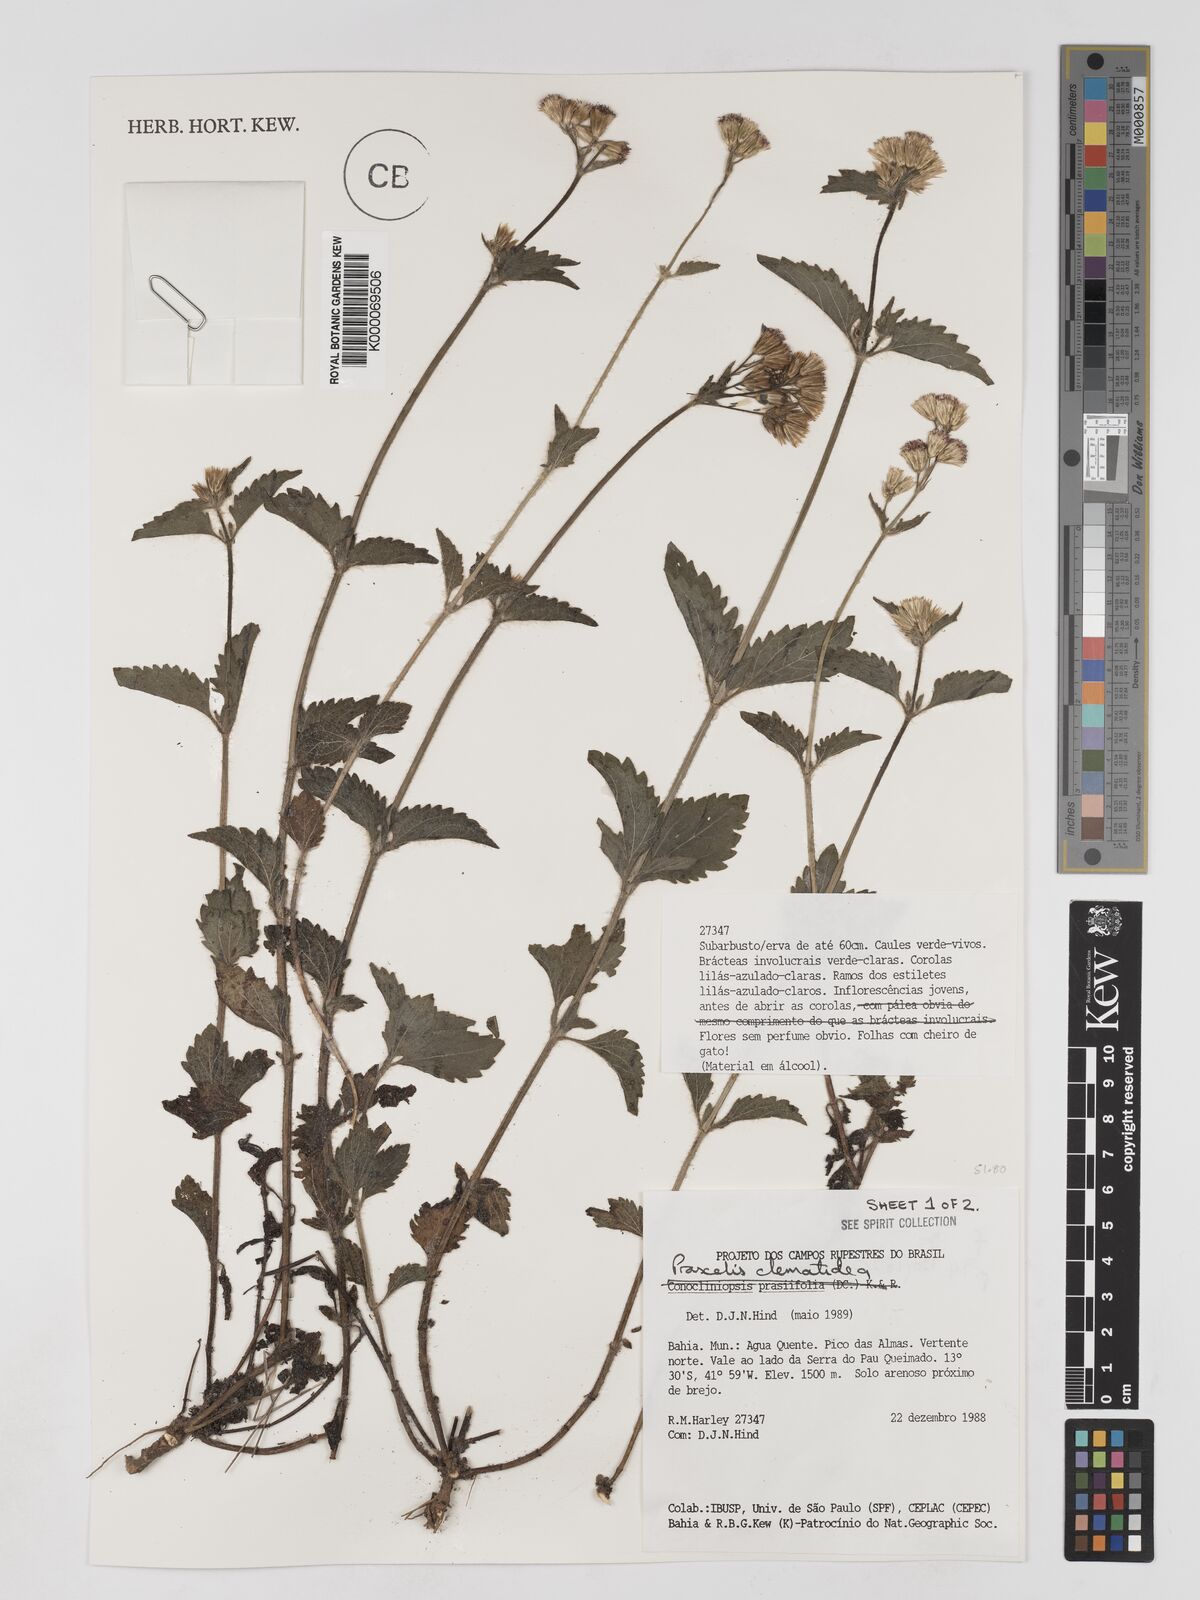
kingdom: Plantae
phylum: Tracheophyta
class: Magnoliopsida
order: Asterales
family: Asteraceae
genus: Praxelis
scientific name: Praxelis clematidea
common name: Praxelis
